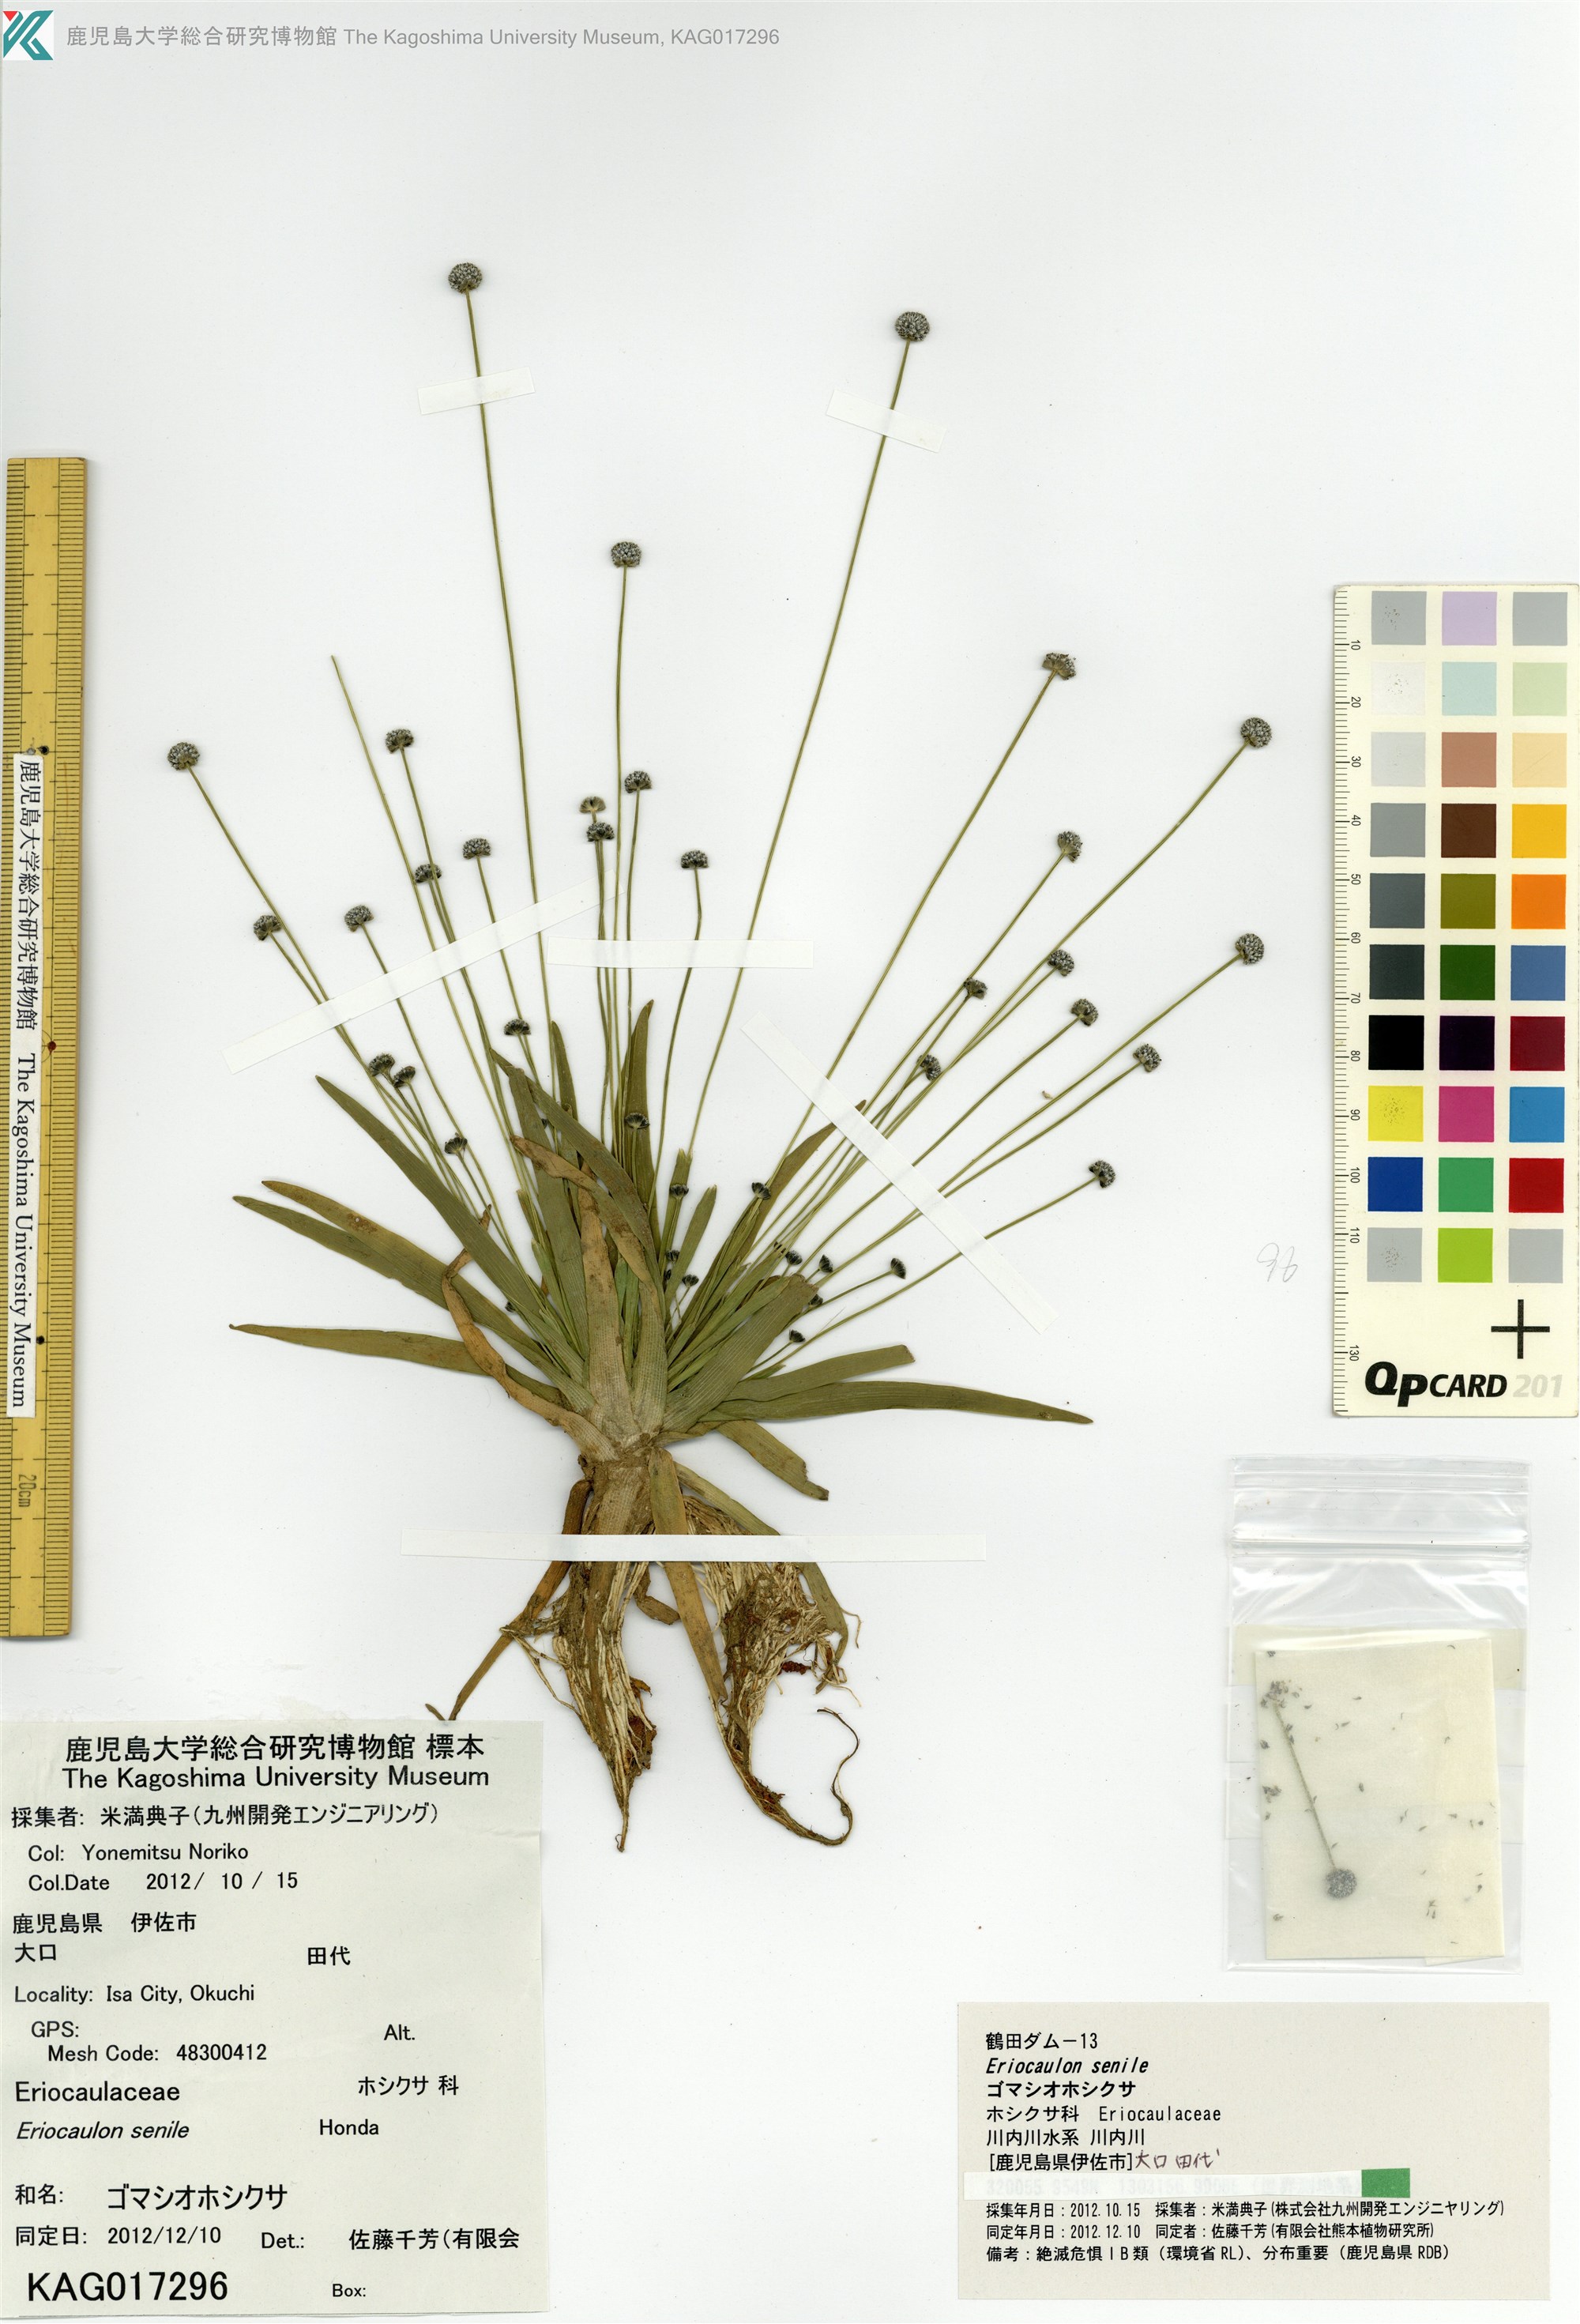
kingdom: Plantae
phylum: Tracheophyta
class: Liliopsida
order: Poales
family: Eriocaulaceae
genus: Eriocaulon
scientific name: Eriocaulon nepalense
